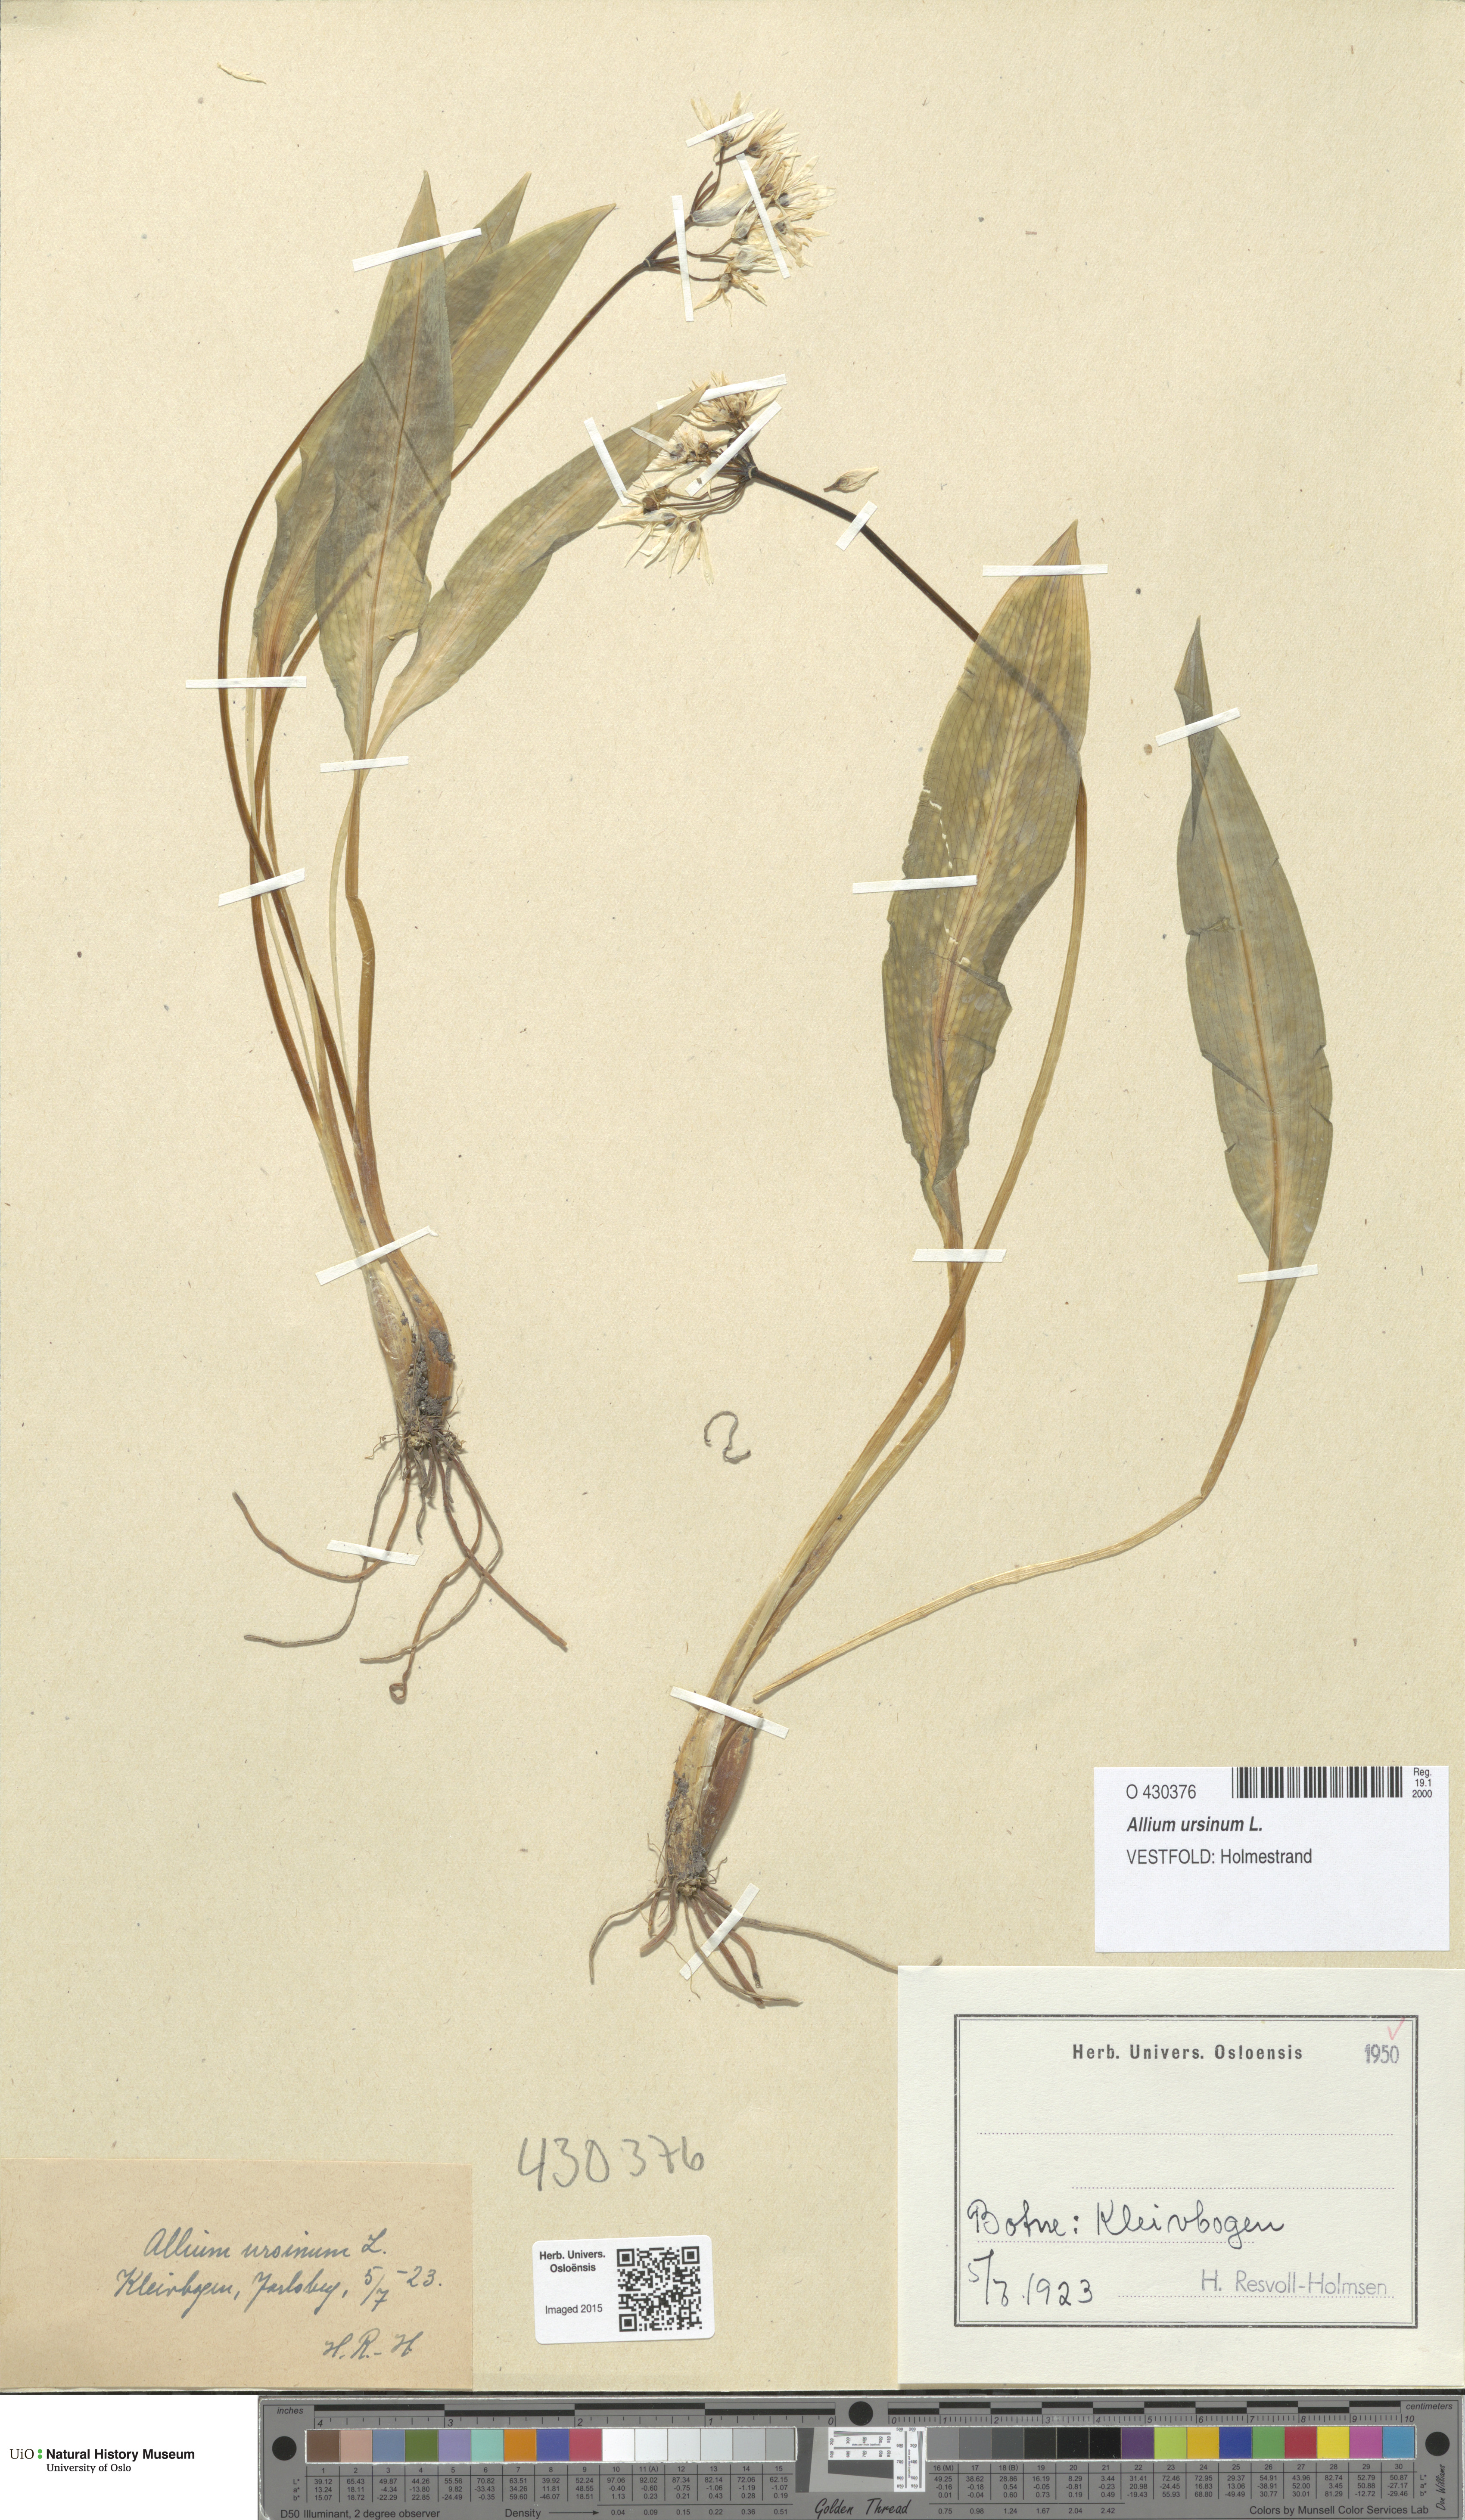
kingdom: Plantae
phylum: Tracheophyta
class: Liliopsida
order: Asparagales
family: Amaryllidaceae
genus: Allium
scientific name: Allium ursinum
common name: Ramsons
